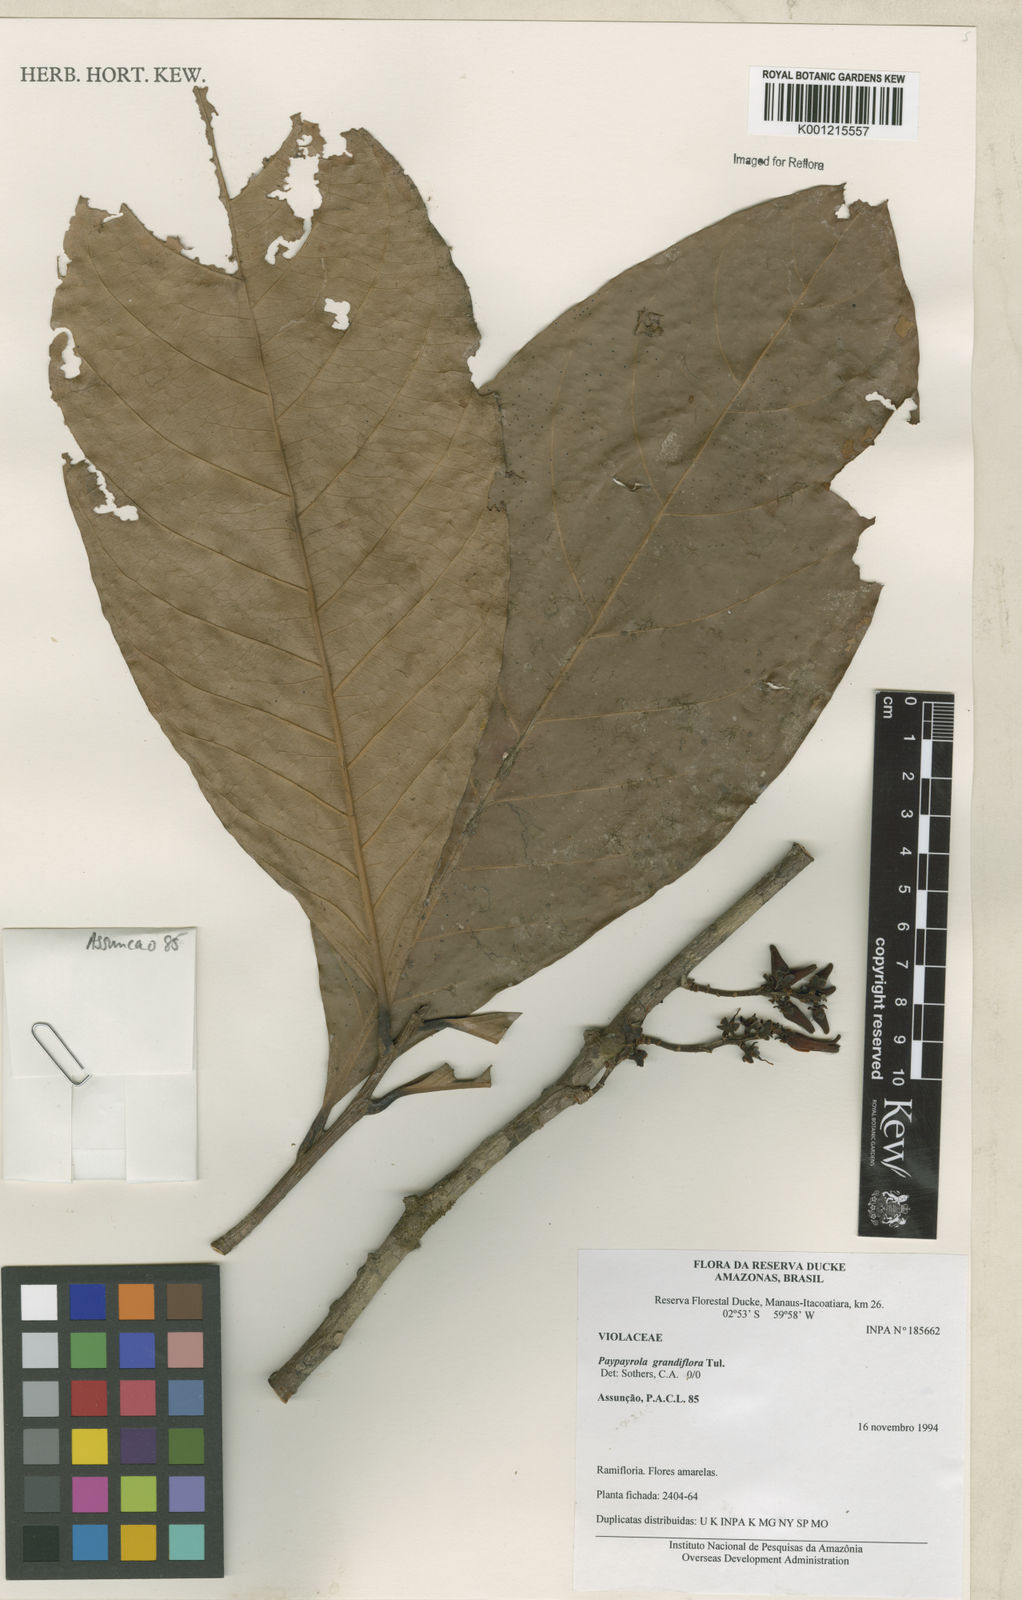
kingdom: Plantae
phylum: Tracheophyta
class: Magnoliopsida
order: Malpighiales
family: Violaceae
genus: Paypayrola
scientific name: Paypayrola grandiflora
